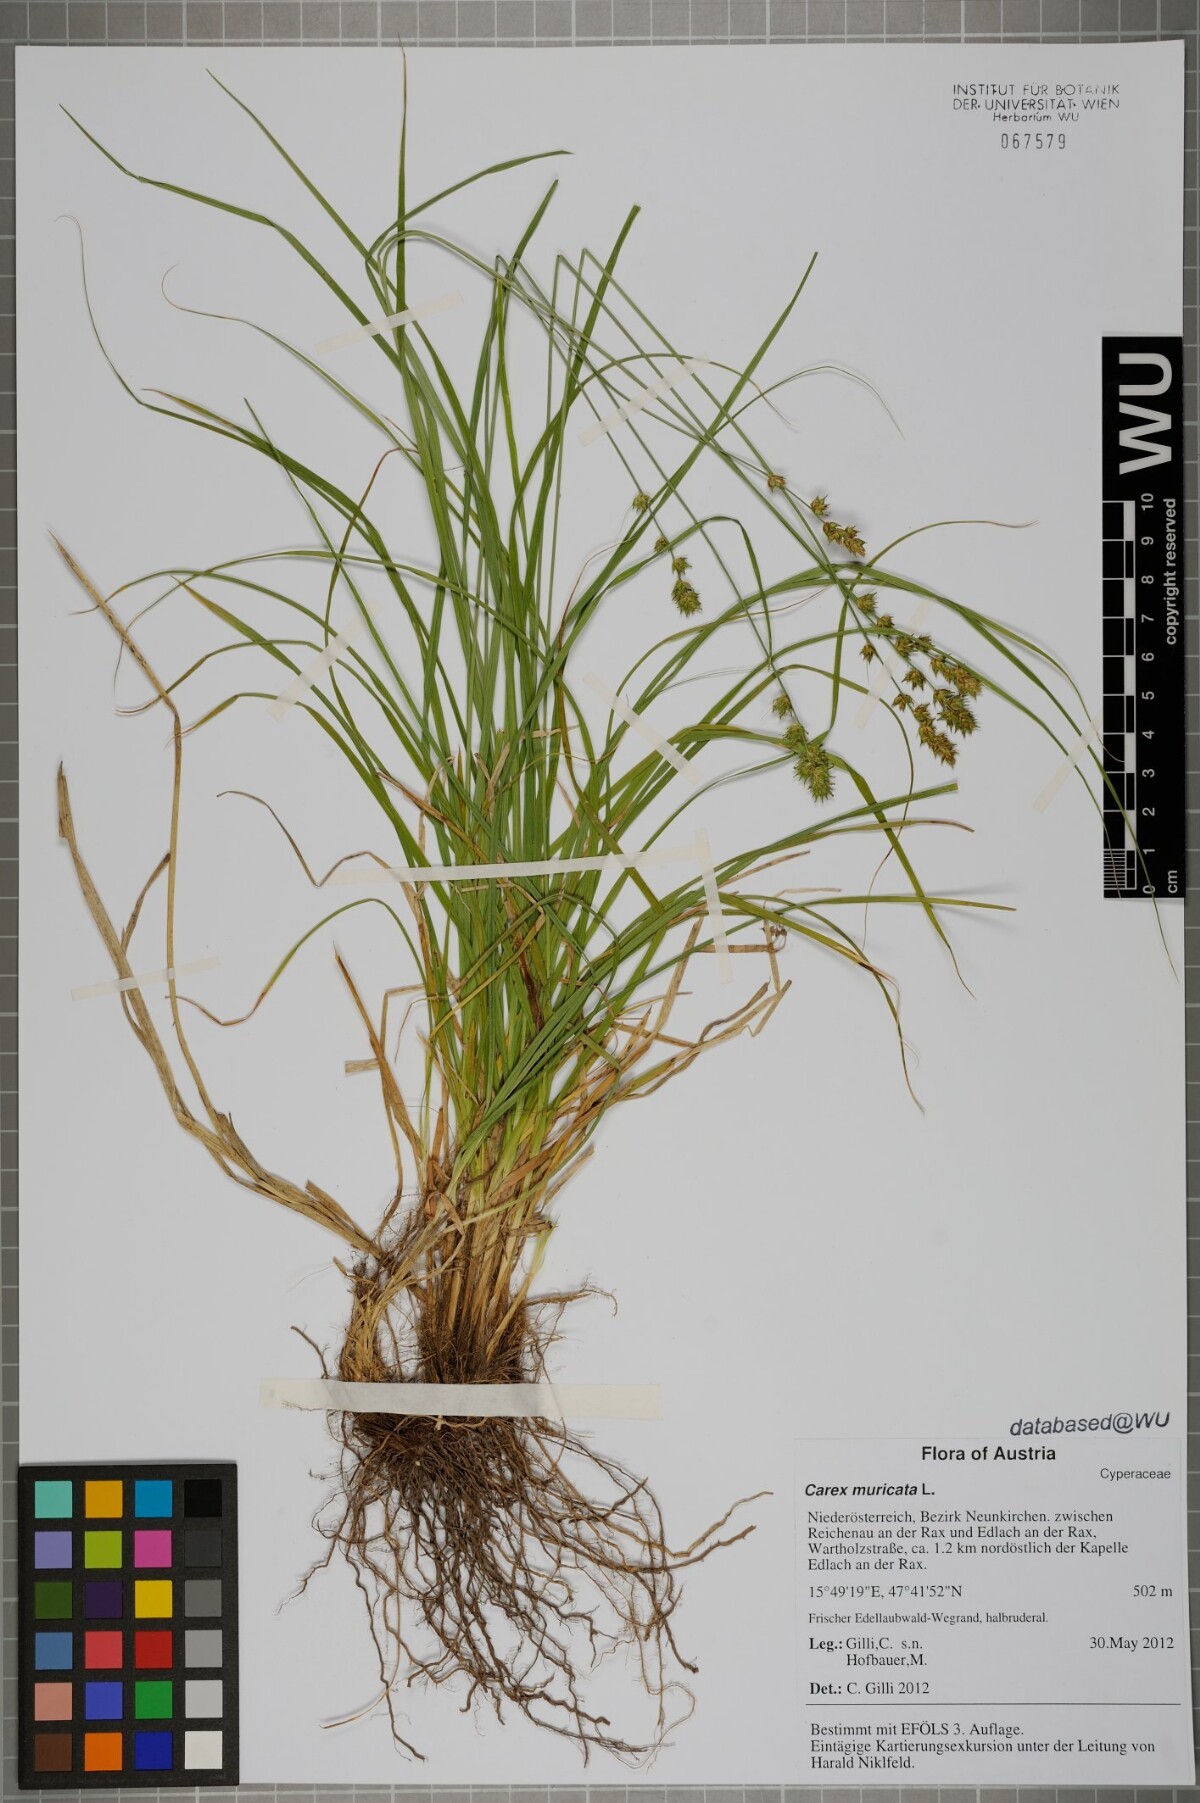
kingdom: Plantae
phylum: Tracheophyta
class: Liliopsida
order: Poales
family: Cyperaceae
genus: Carex
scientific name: Carex muricata
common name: Rough sedge
